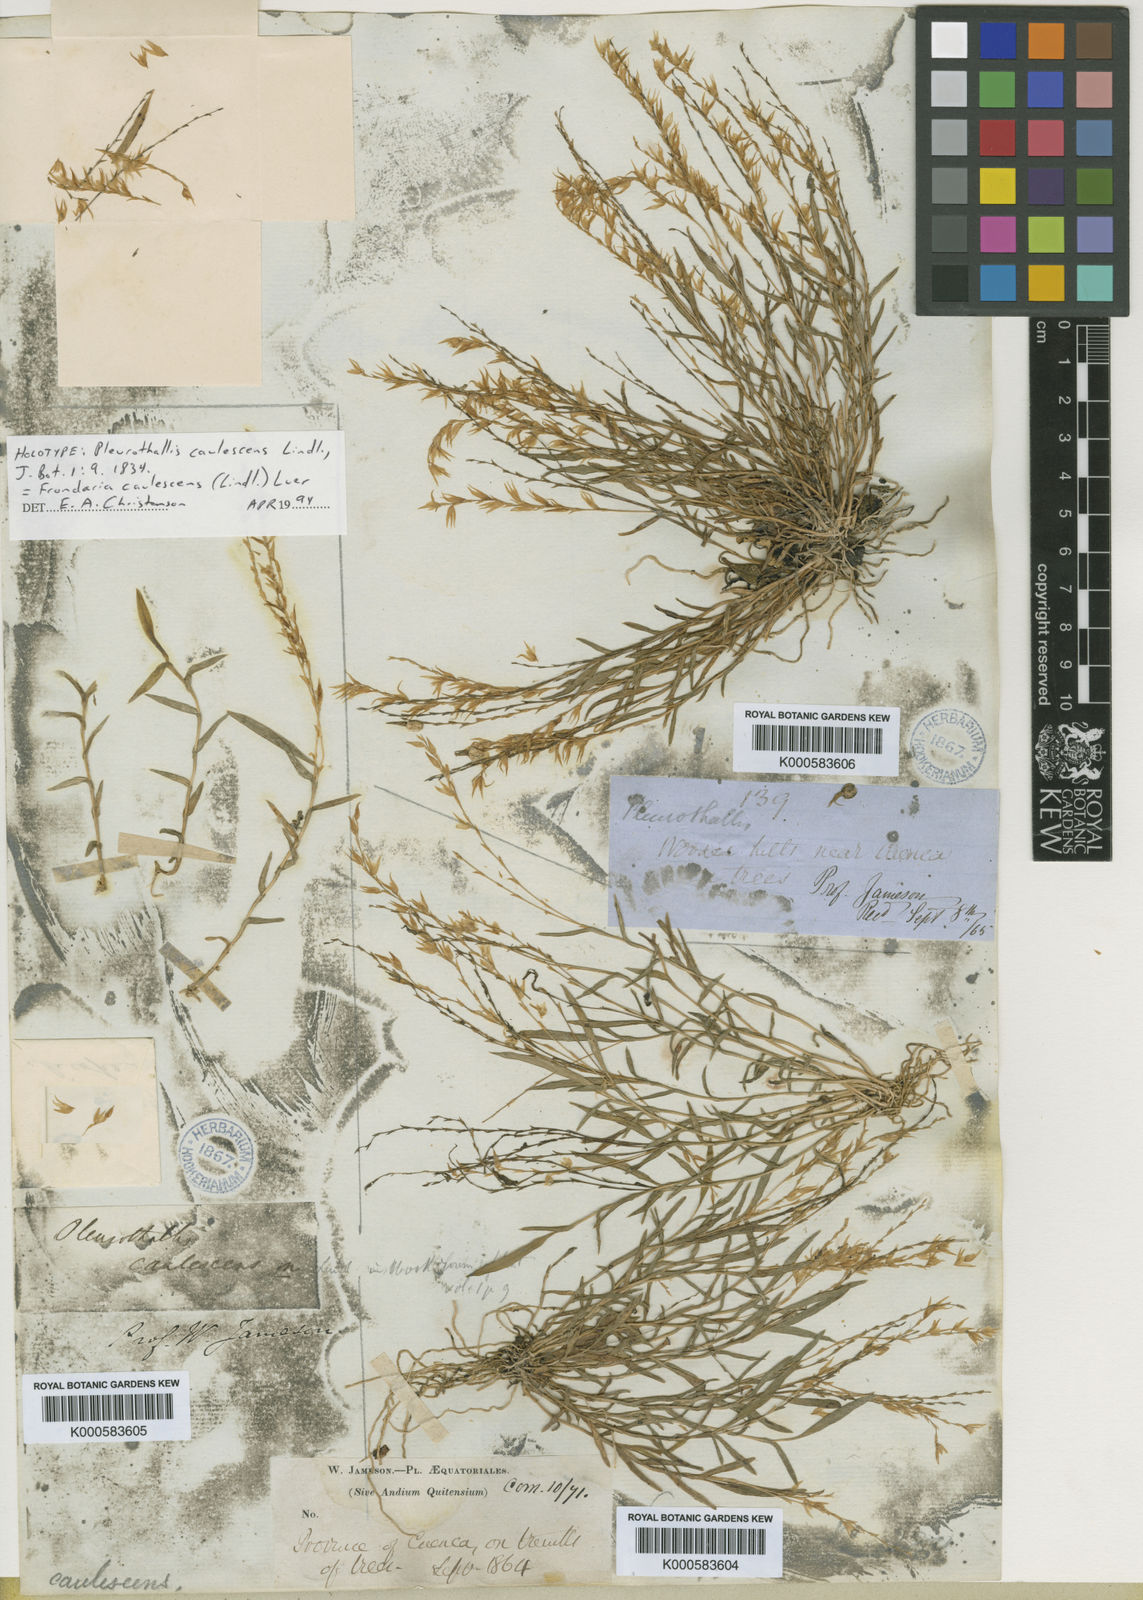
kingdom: Plantae
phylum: Tracheophyta
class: Liliopsida
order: Asparagales
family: Orchidaceae
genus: Frondaria
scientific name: Frondaria caulescens
